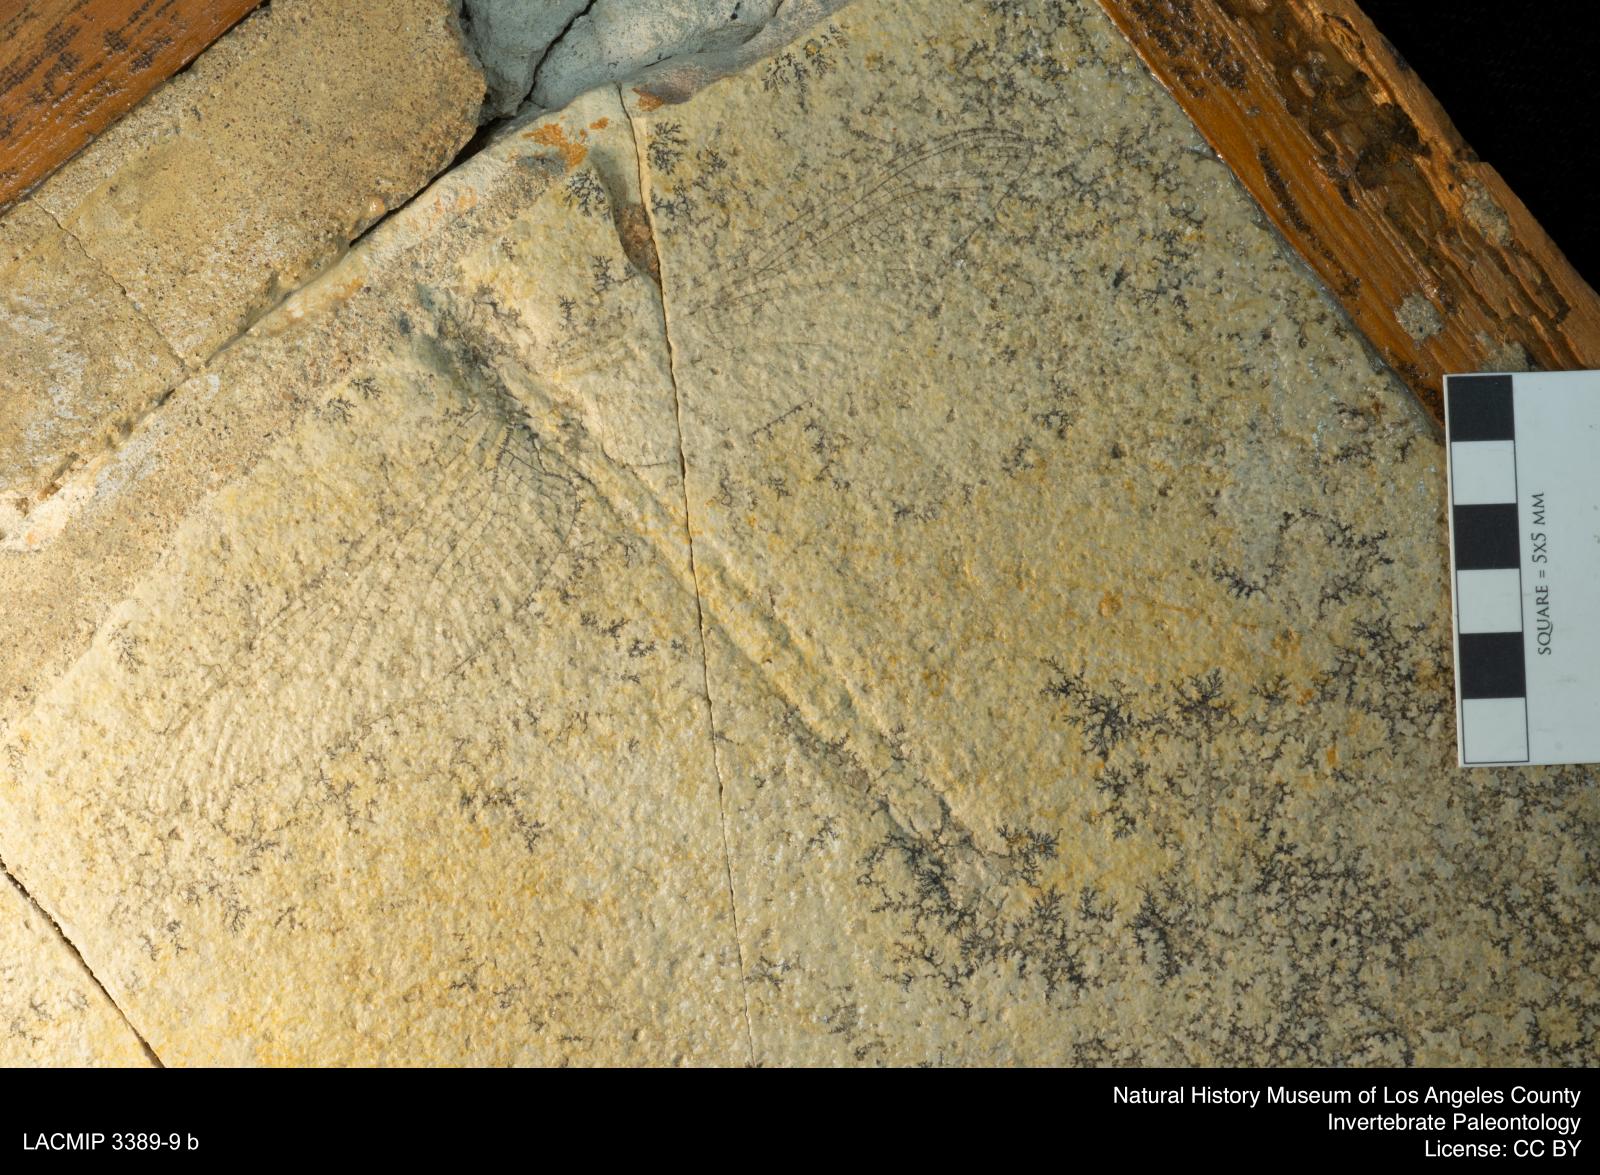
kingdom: Animalia
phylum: Arthropoda
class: Insecta
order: Odonata
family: Cordulegasteridae
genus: Protolindenia
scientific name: Protolindenia Aeschna wittei
